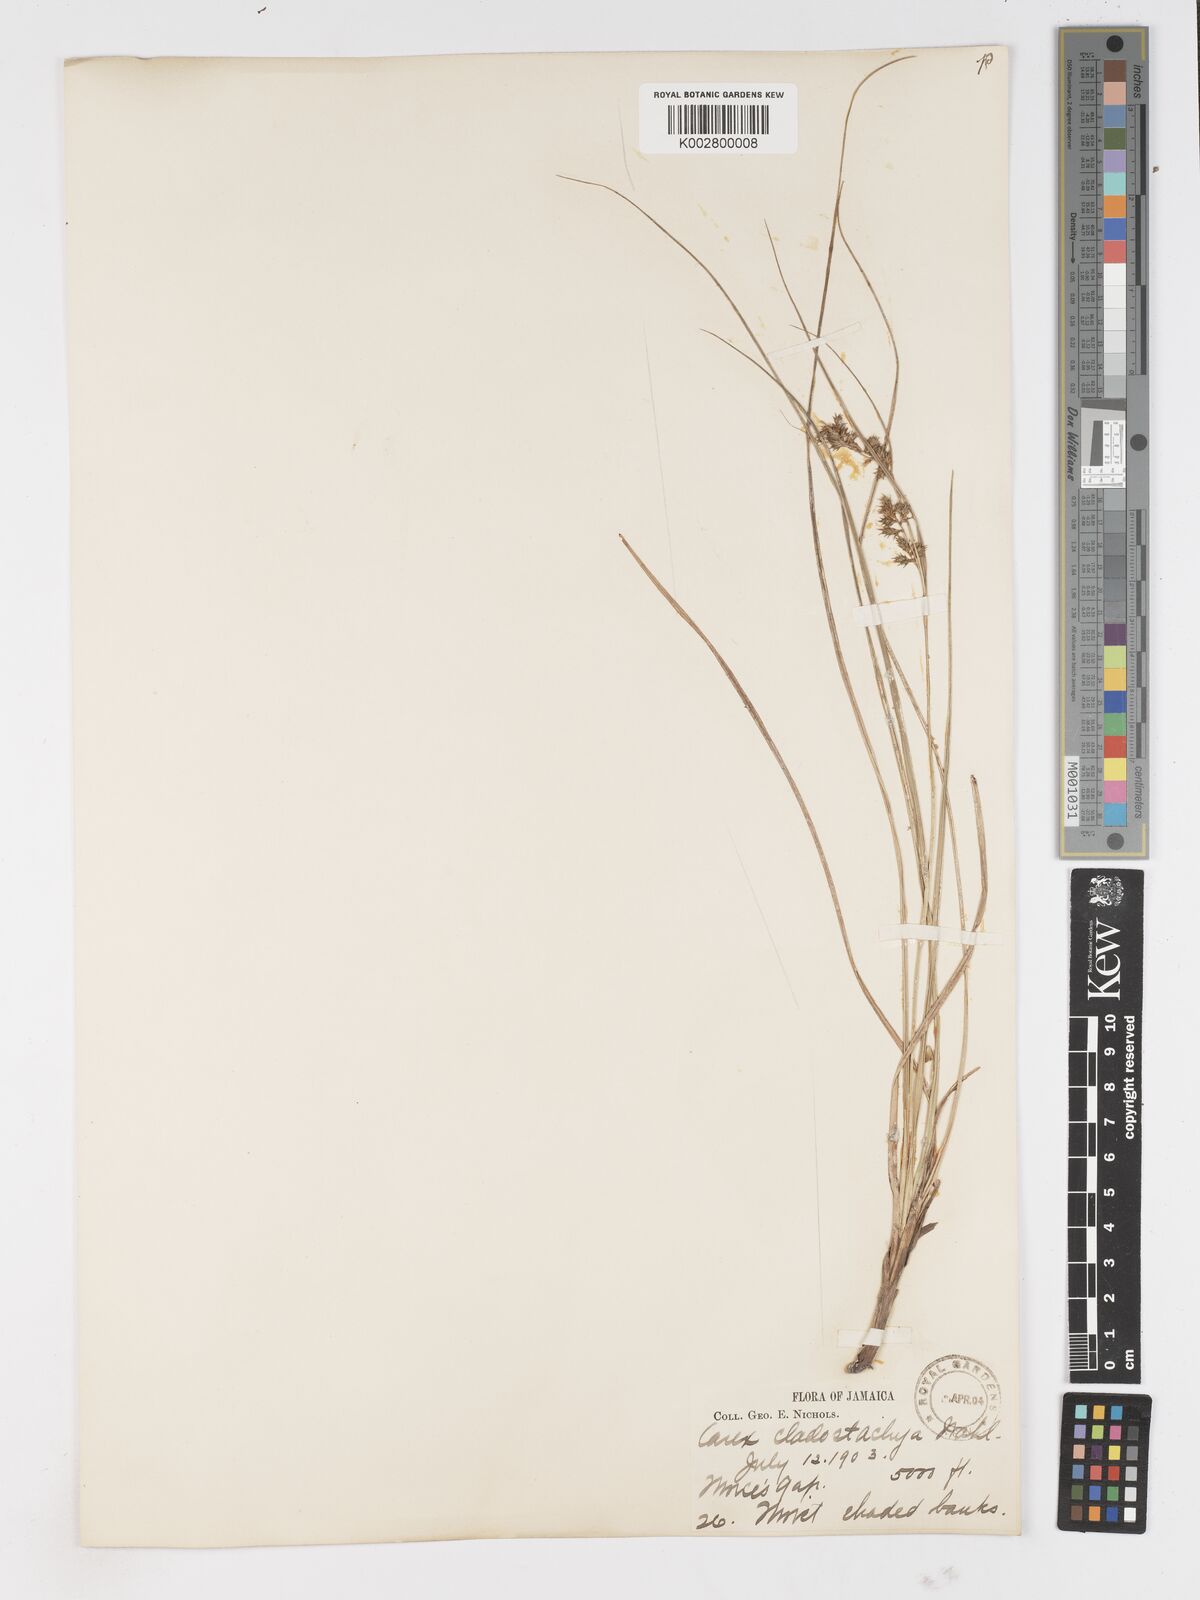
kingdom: Plantae
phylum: Tracheophyta
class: Liliopsida
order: Poales
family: Cyperaceae
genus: Carex
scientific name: Carex polystachya
